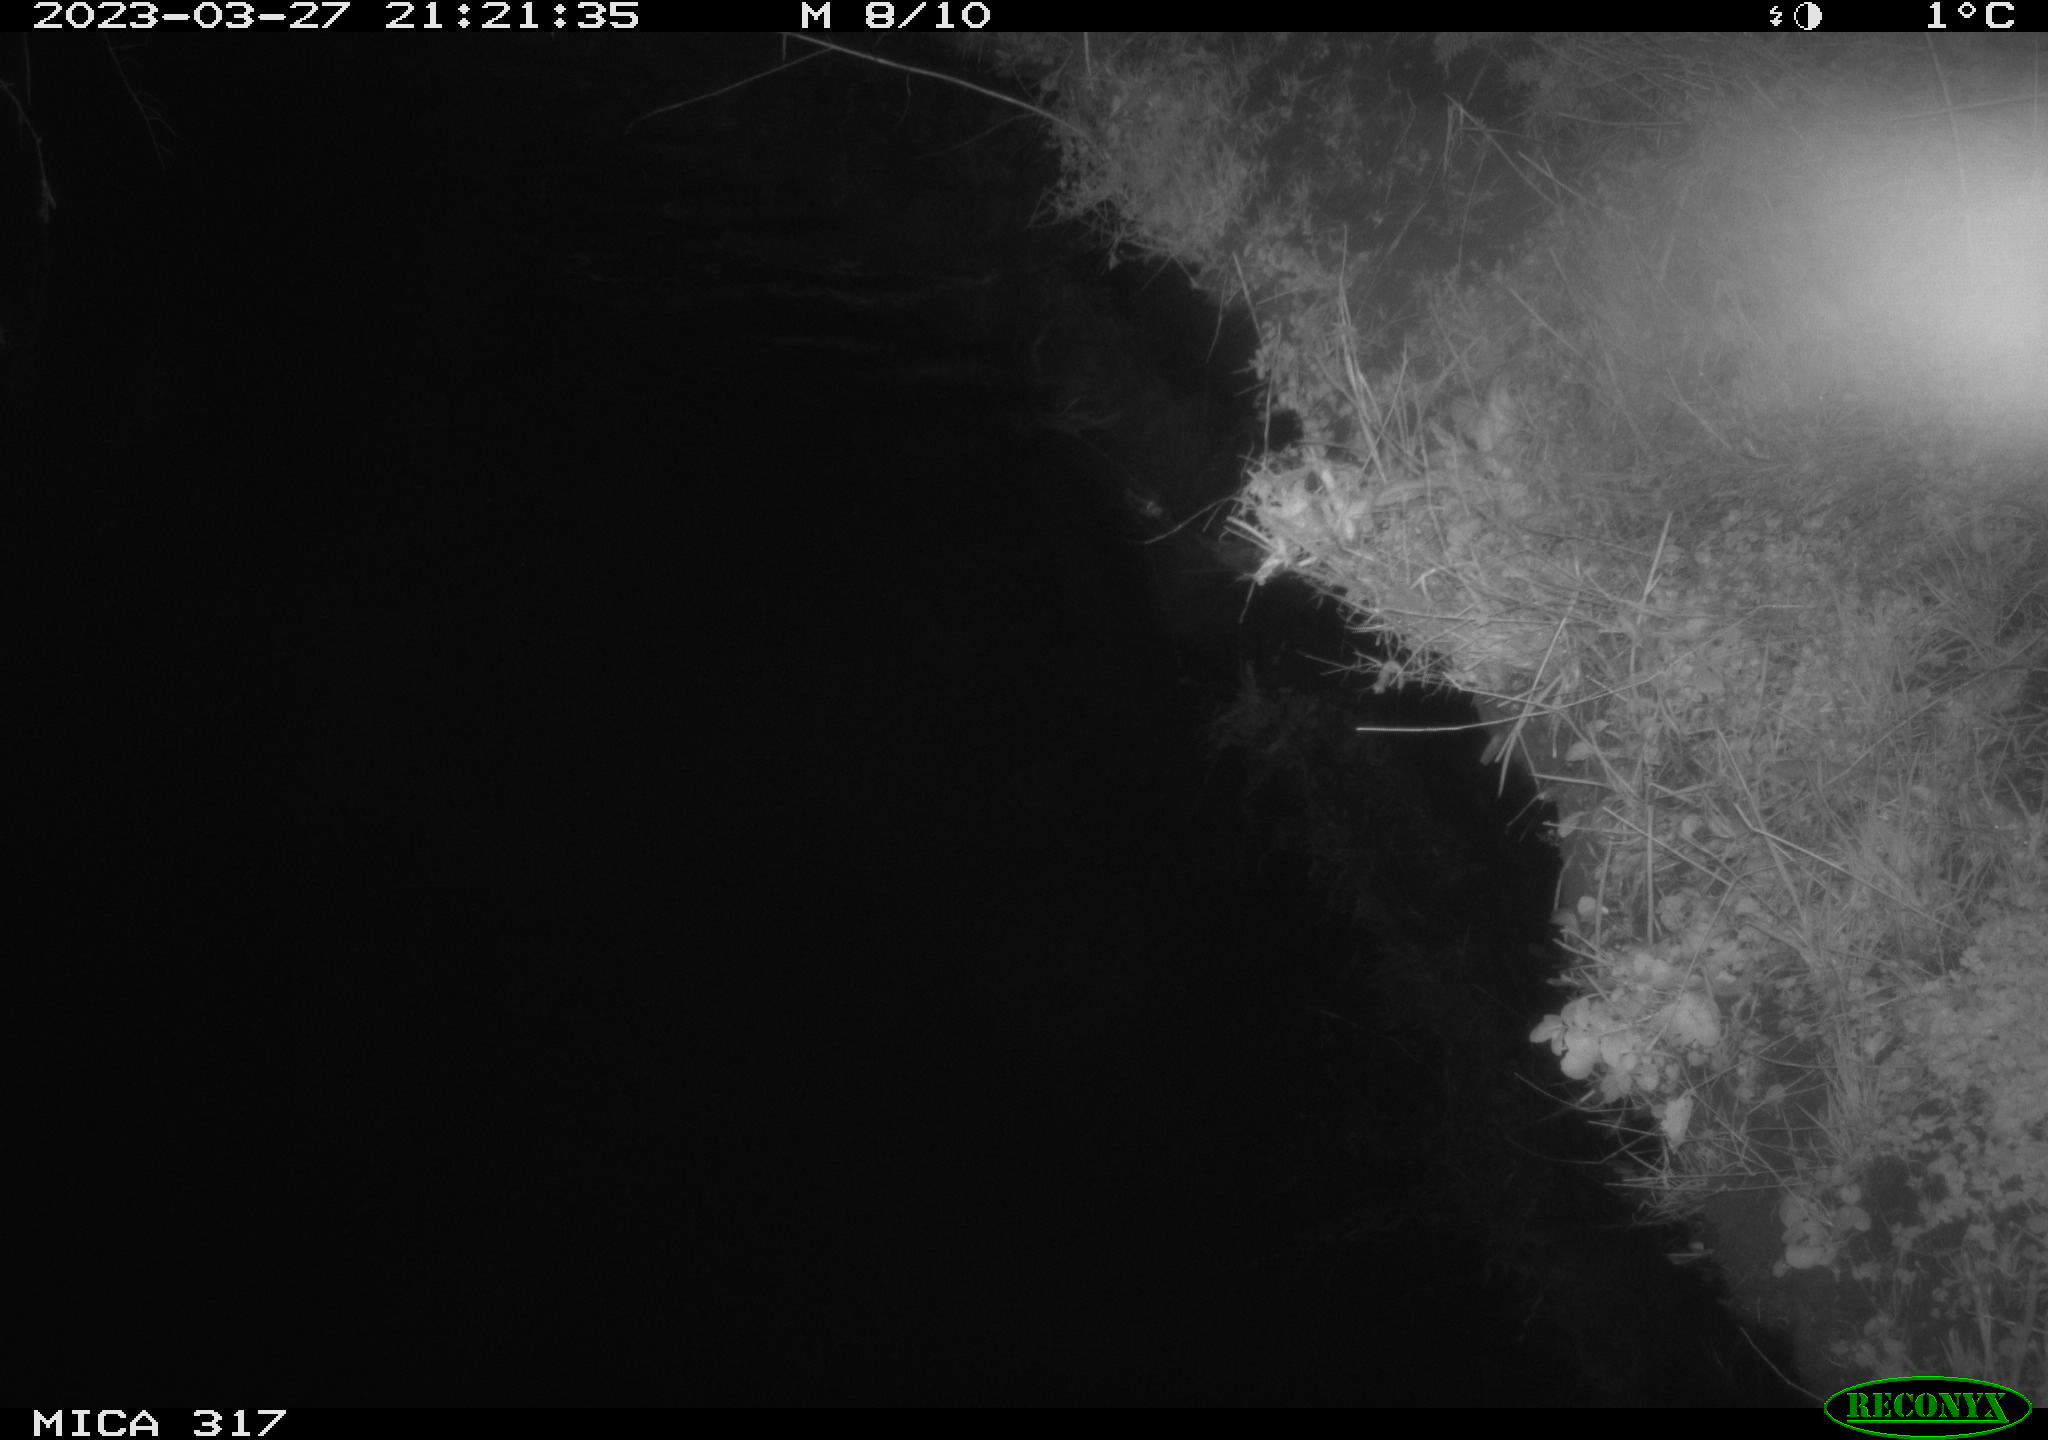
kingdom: Animalia
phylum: Chordata
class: Aves
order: Anseriformes
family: Anatidae
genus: Anas
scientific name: Anas
